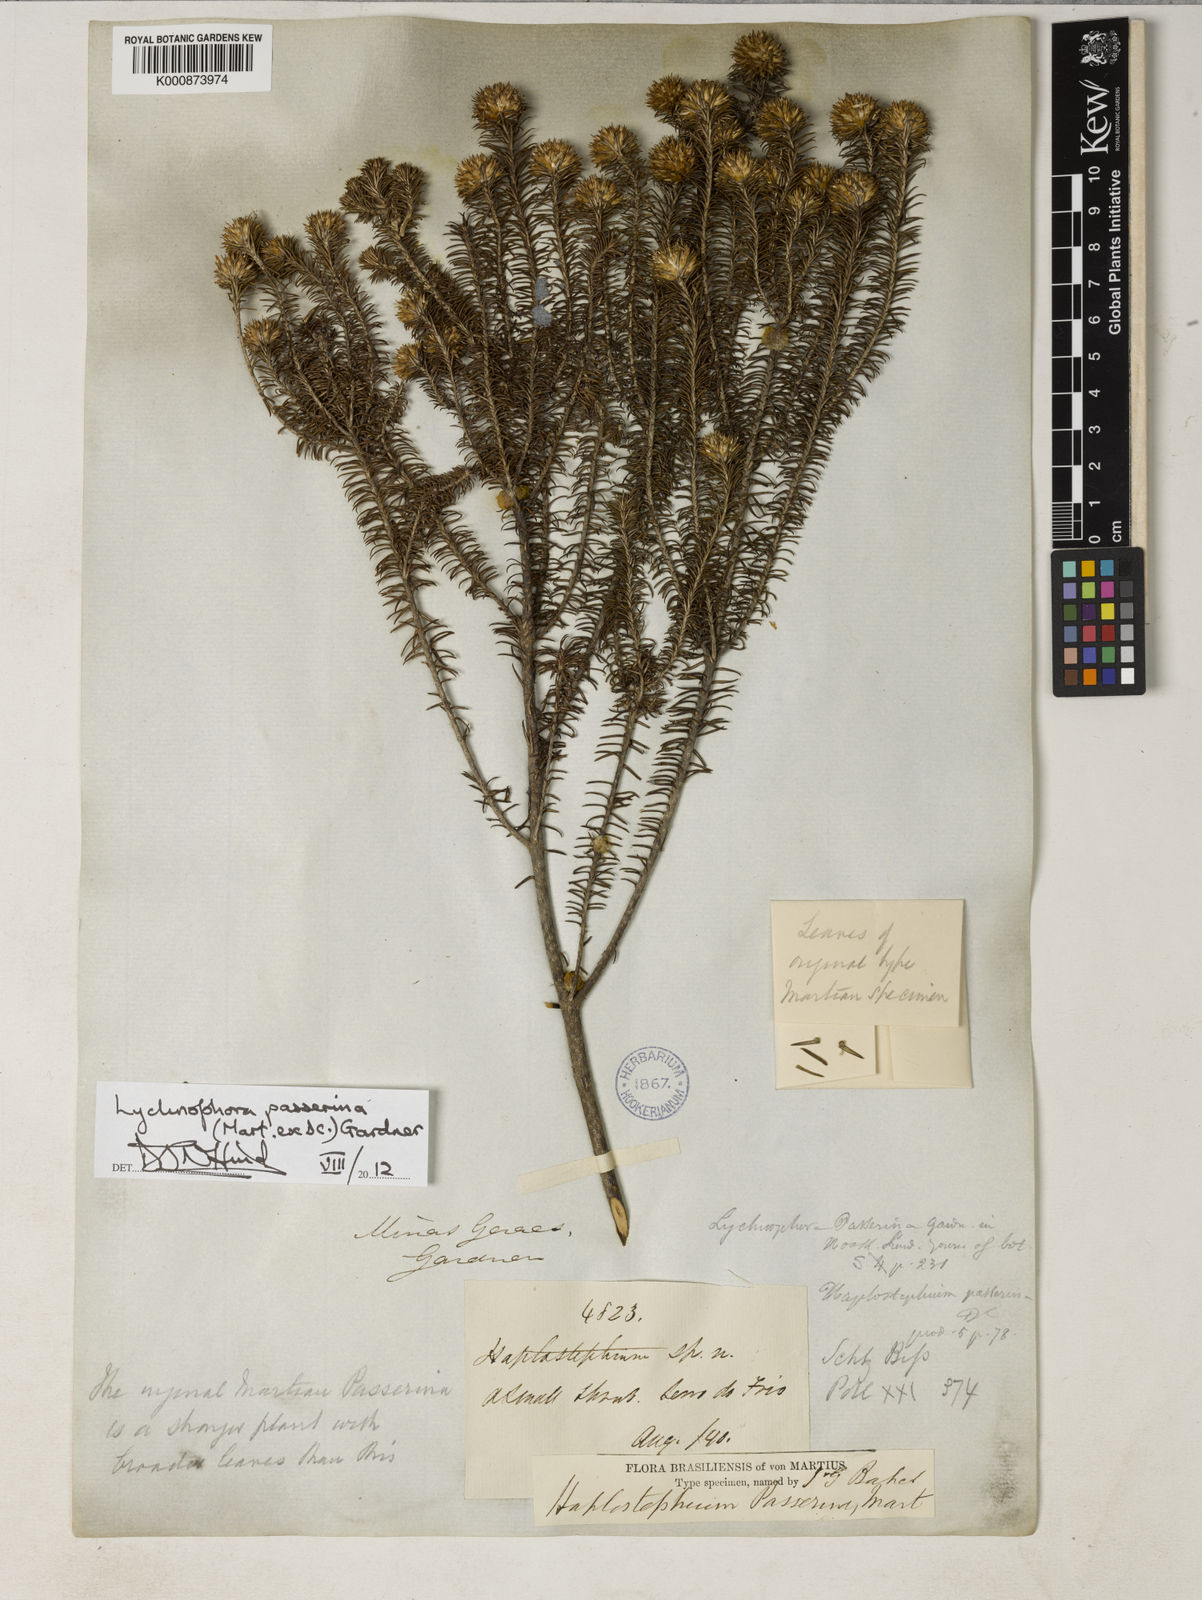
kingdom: Plantae
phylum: Tracheophyta
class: Magnoliopsida
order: Asterales
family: Asteraceae
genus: Lychnophora
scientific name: Lychnophora passerina
